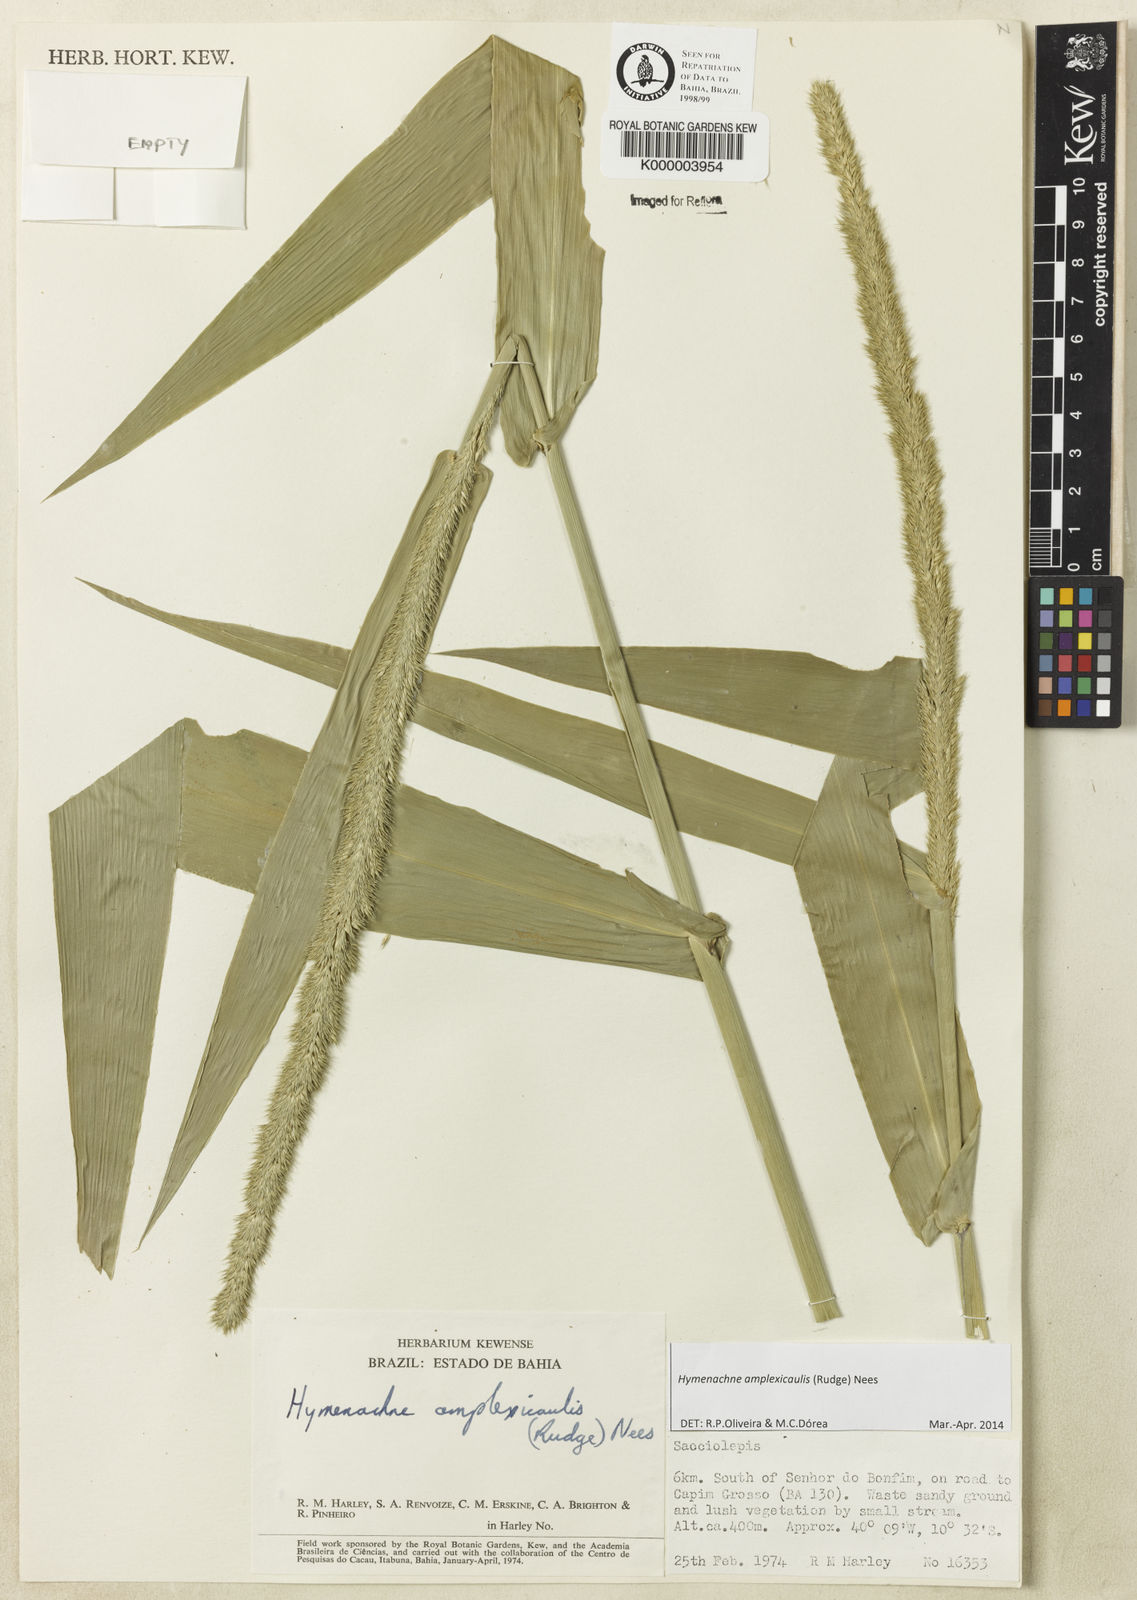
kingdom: Plantae
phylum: Tracheophyta
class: Liliopsida
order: Poales
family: Poaceae
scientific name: Poaceae
